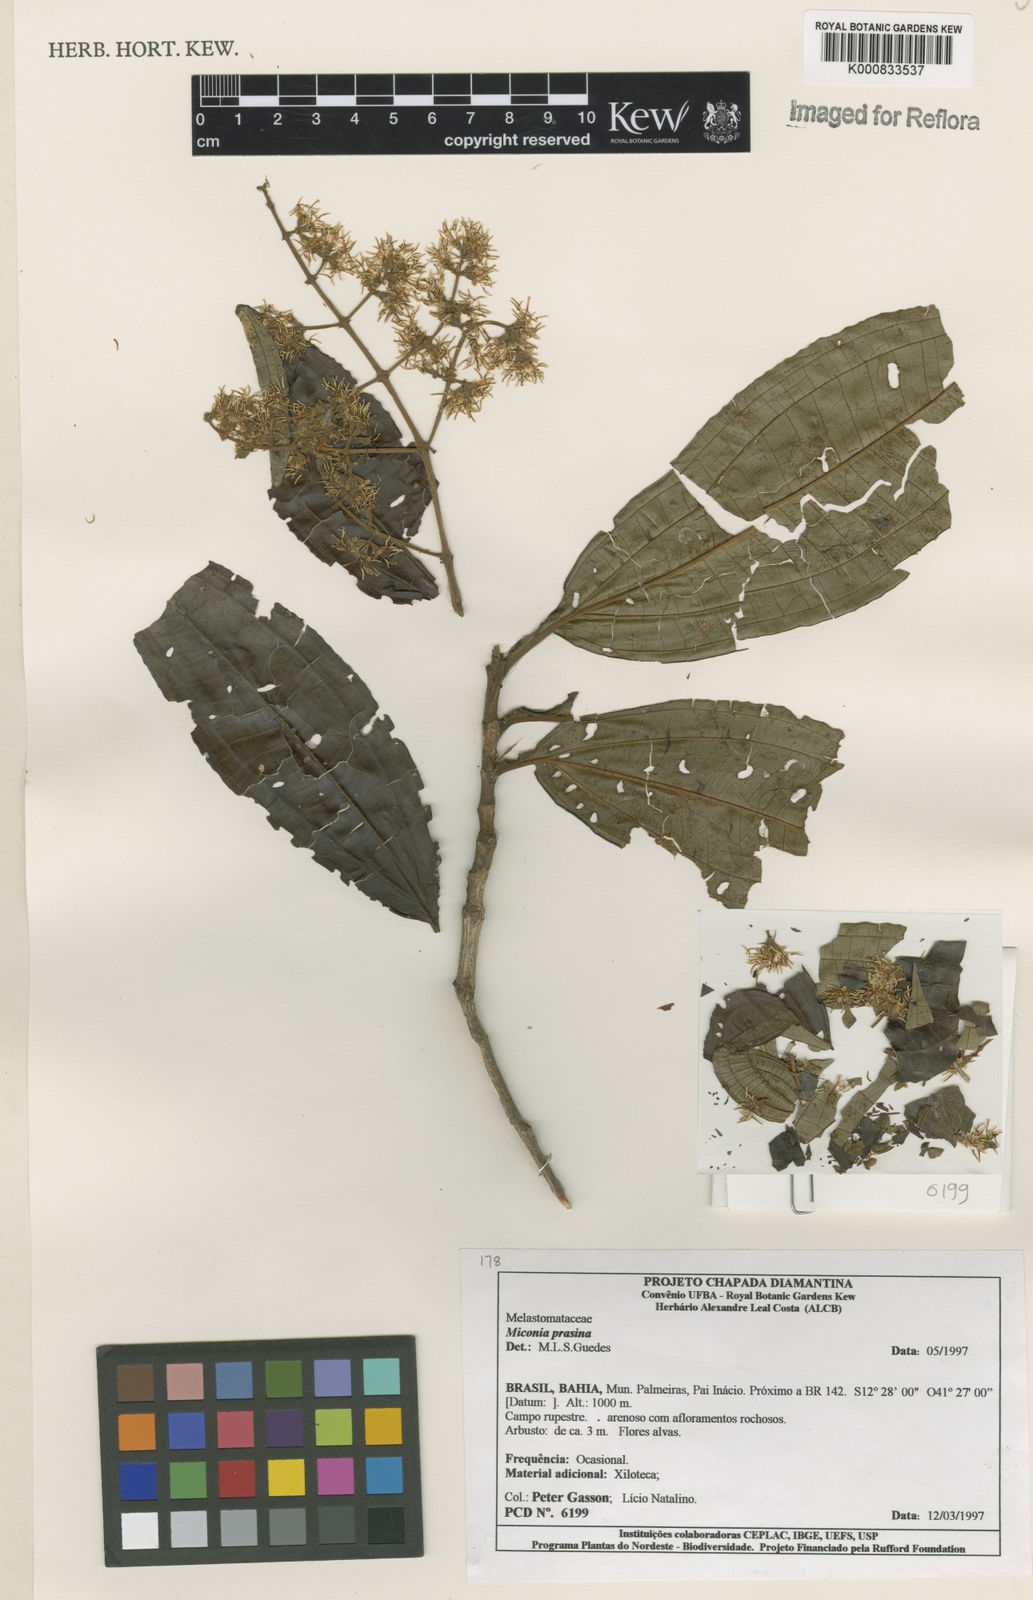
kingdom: Plantae
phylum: Tracheophyta
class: Magnoliopsida
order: Myrtales
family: Melastomataceae
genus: Miconia
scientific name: Miconia prasina
